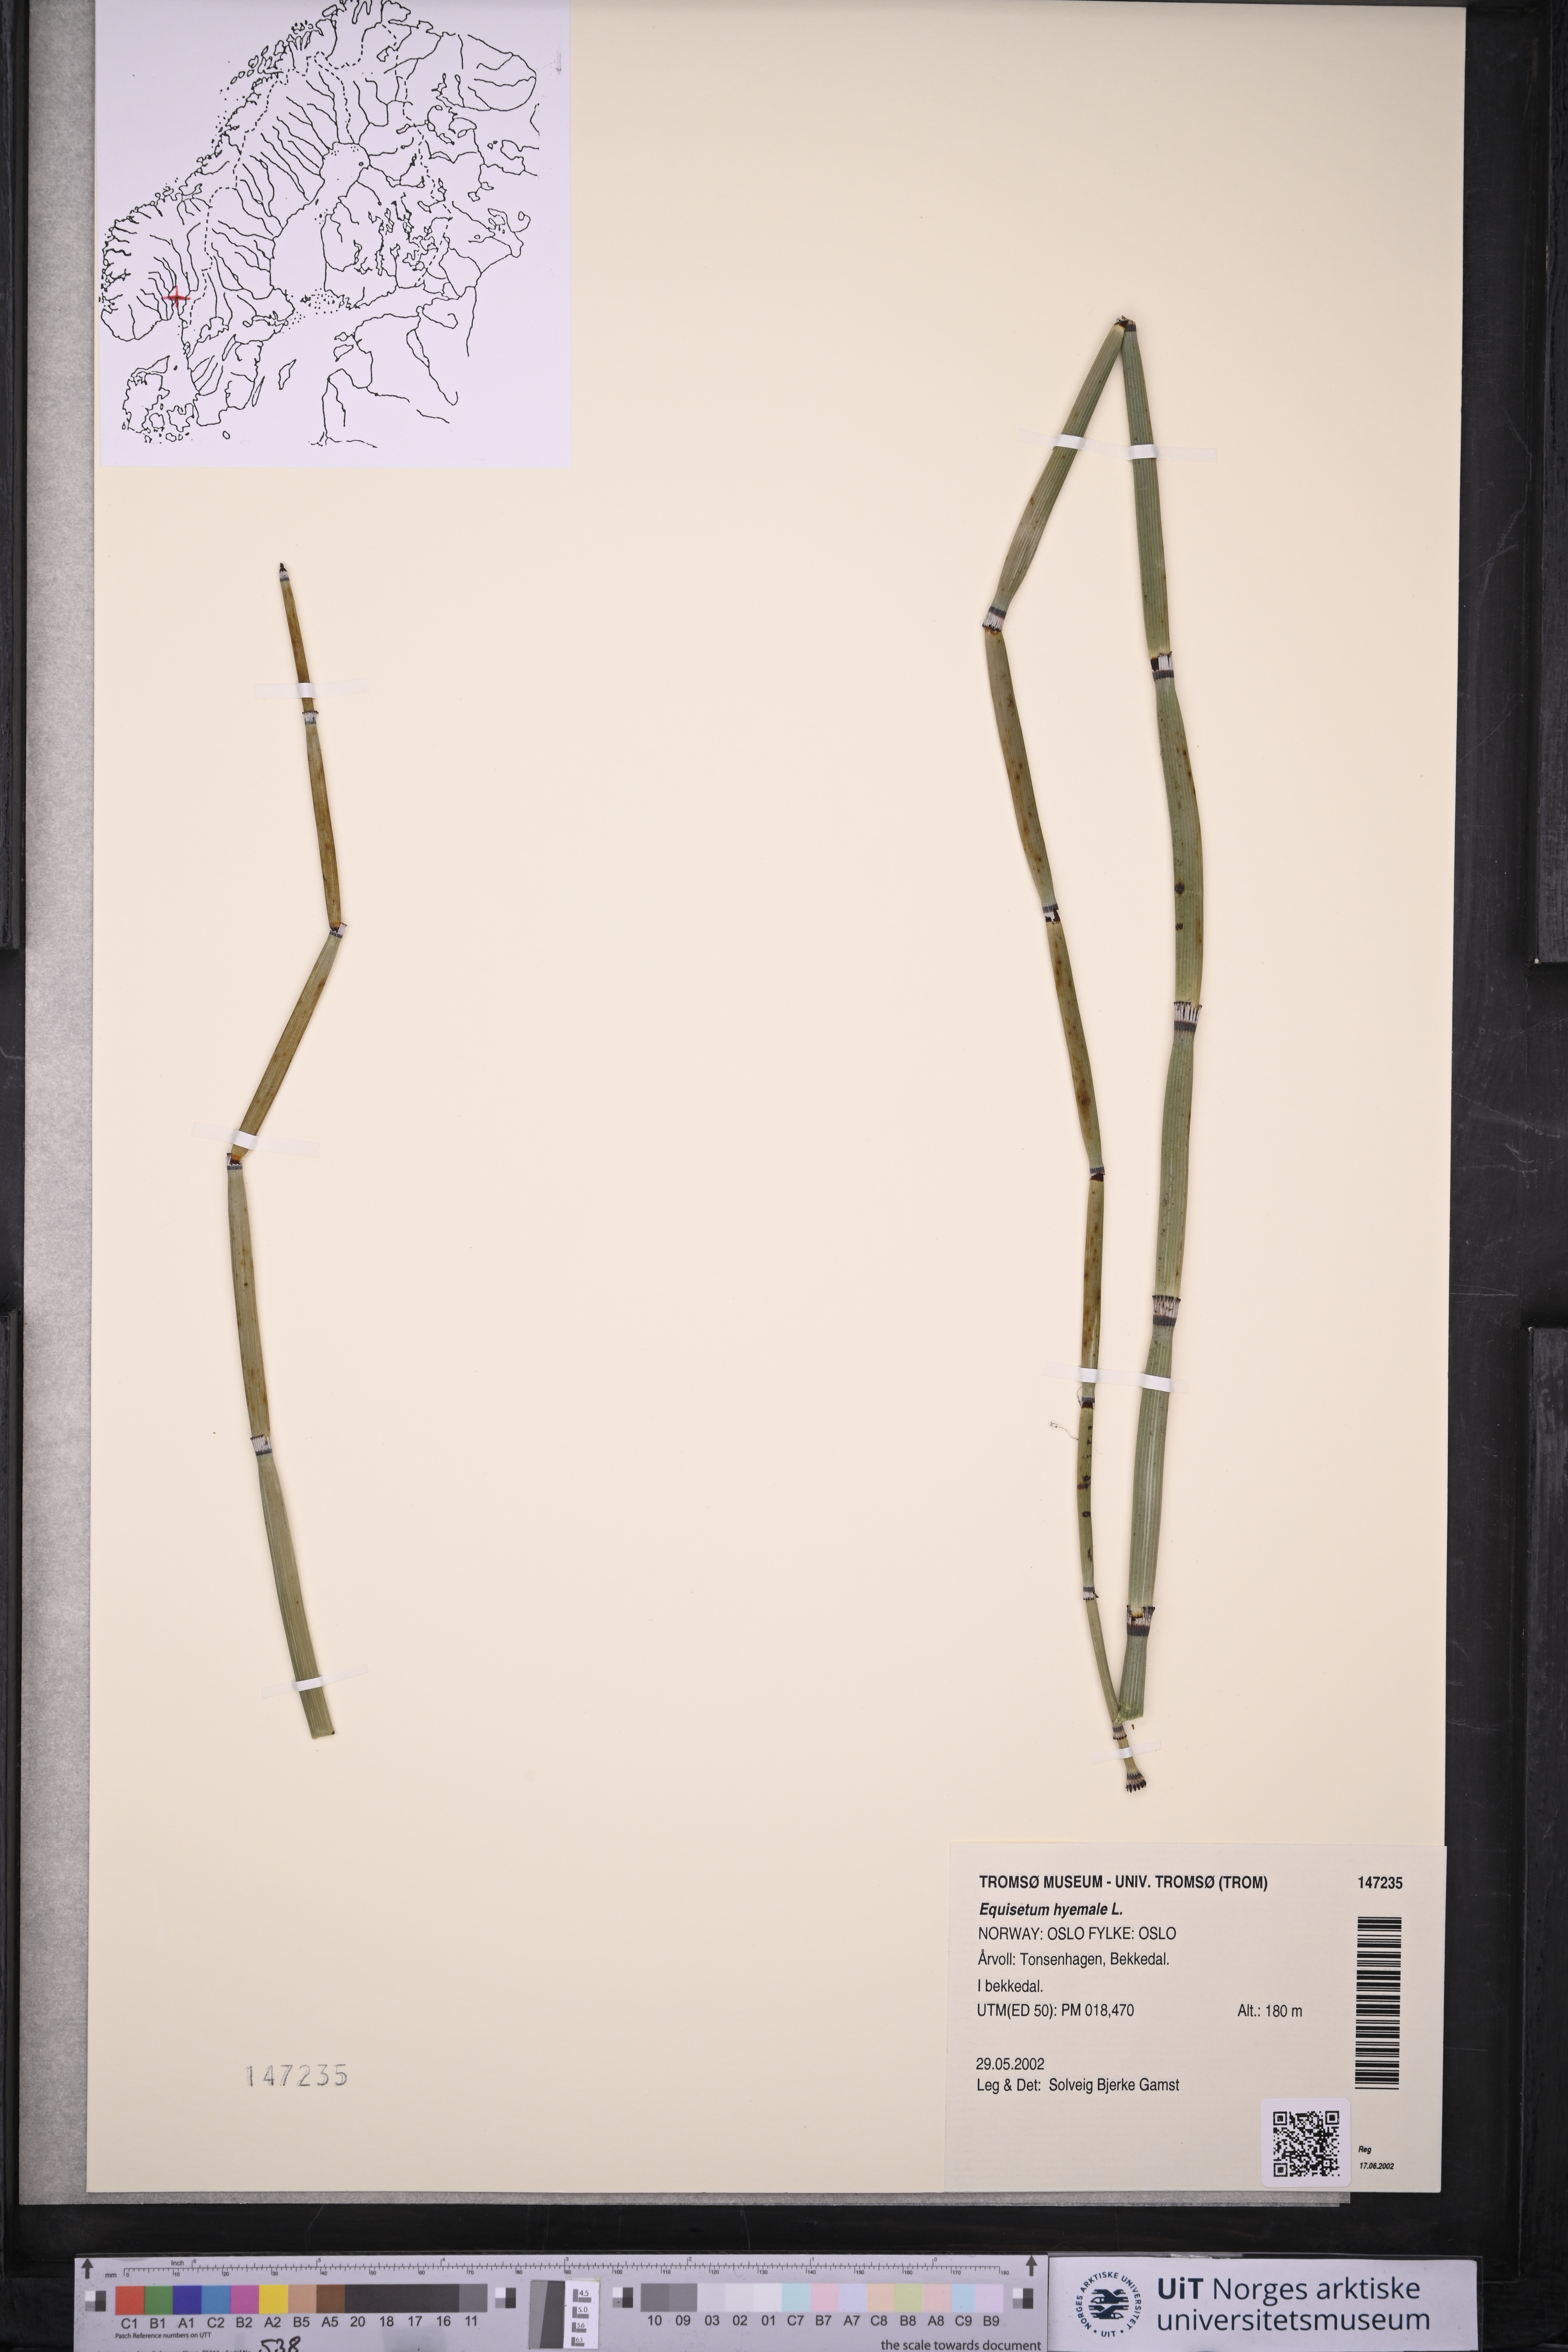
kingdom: Plantae
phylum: Tracheophyta
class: Polypodiopsida
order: Equisetales
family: Equisetaceae
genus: Equisetum
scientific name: Equisetum hyemale
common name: Rough horsetail
